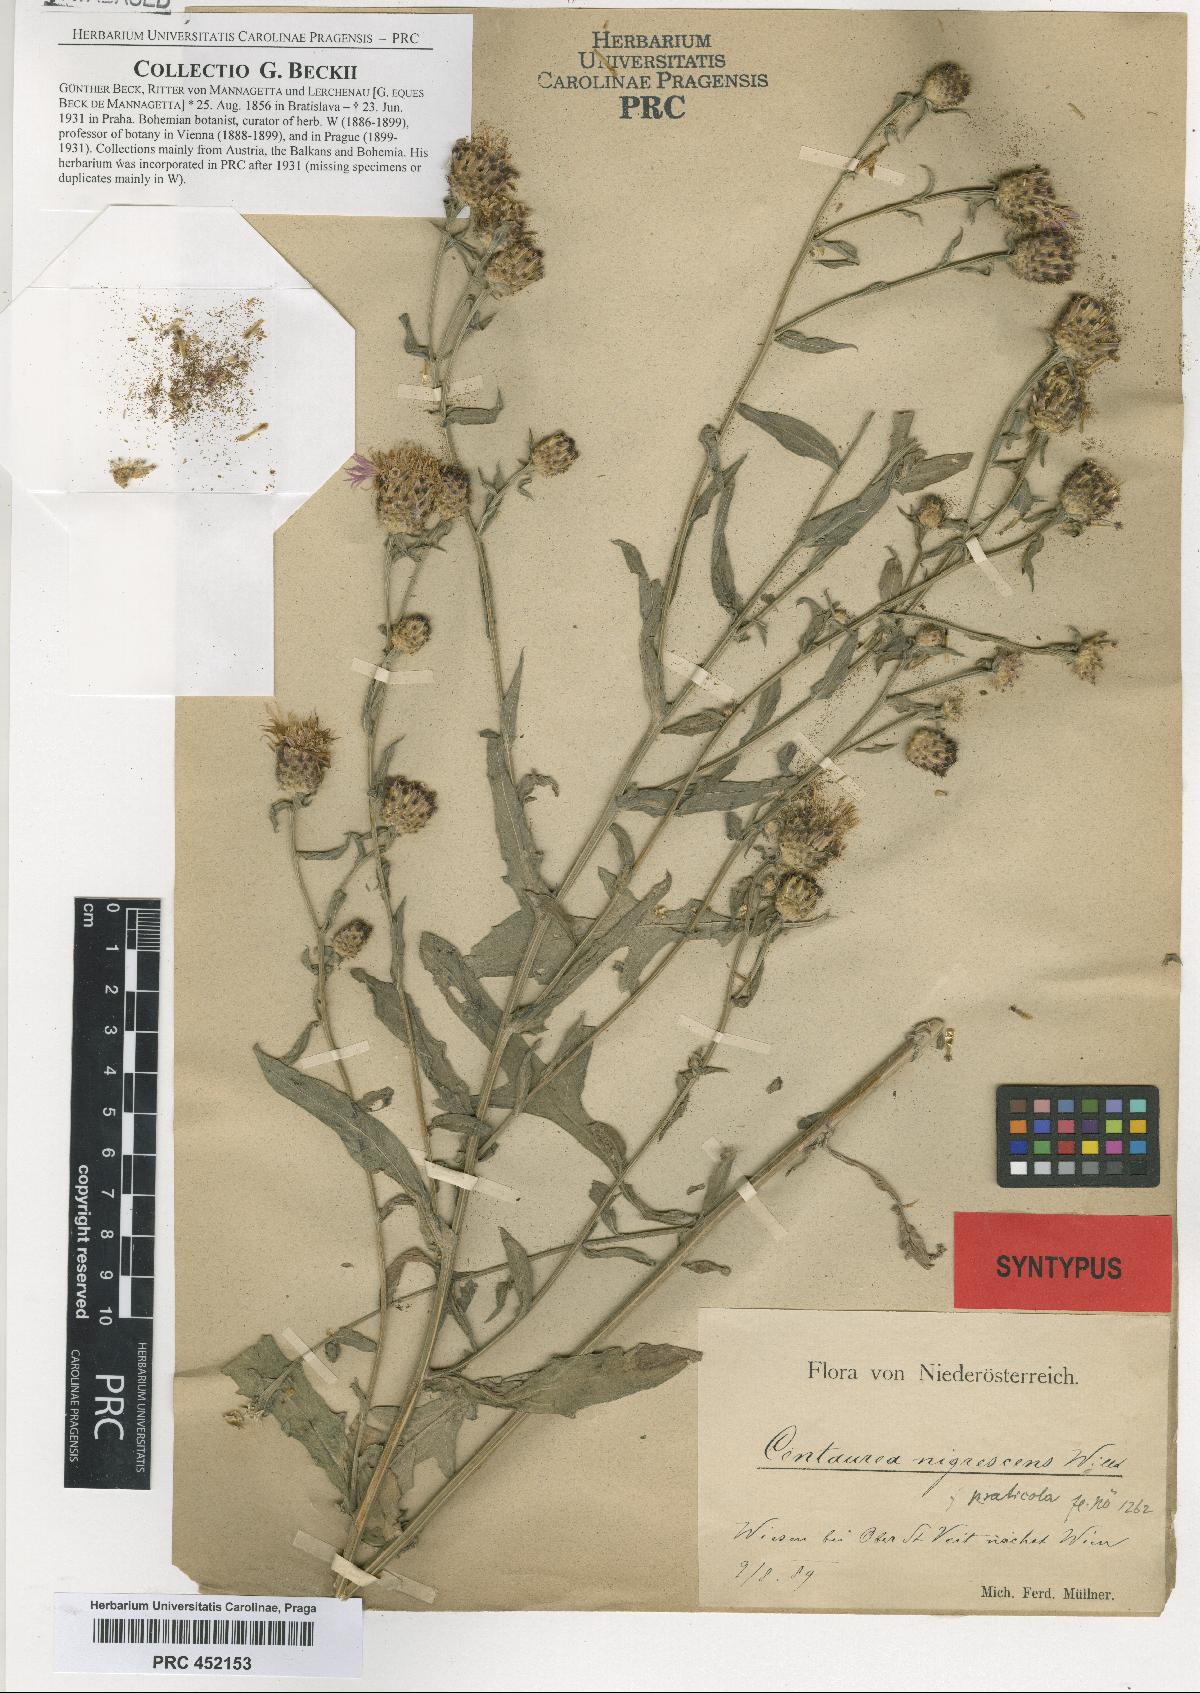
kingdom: Plantae
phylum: Tracheophyta
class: Magnoliopsida
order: Asterales
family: Asteraceae
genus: Centaurea
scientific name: Centaurea nigrescens
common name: Tyrol knapweed
